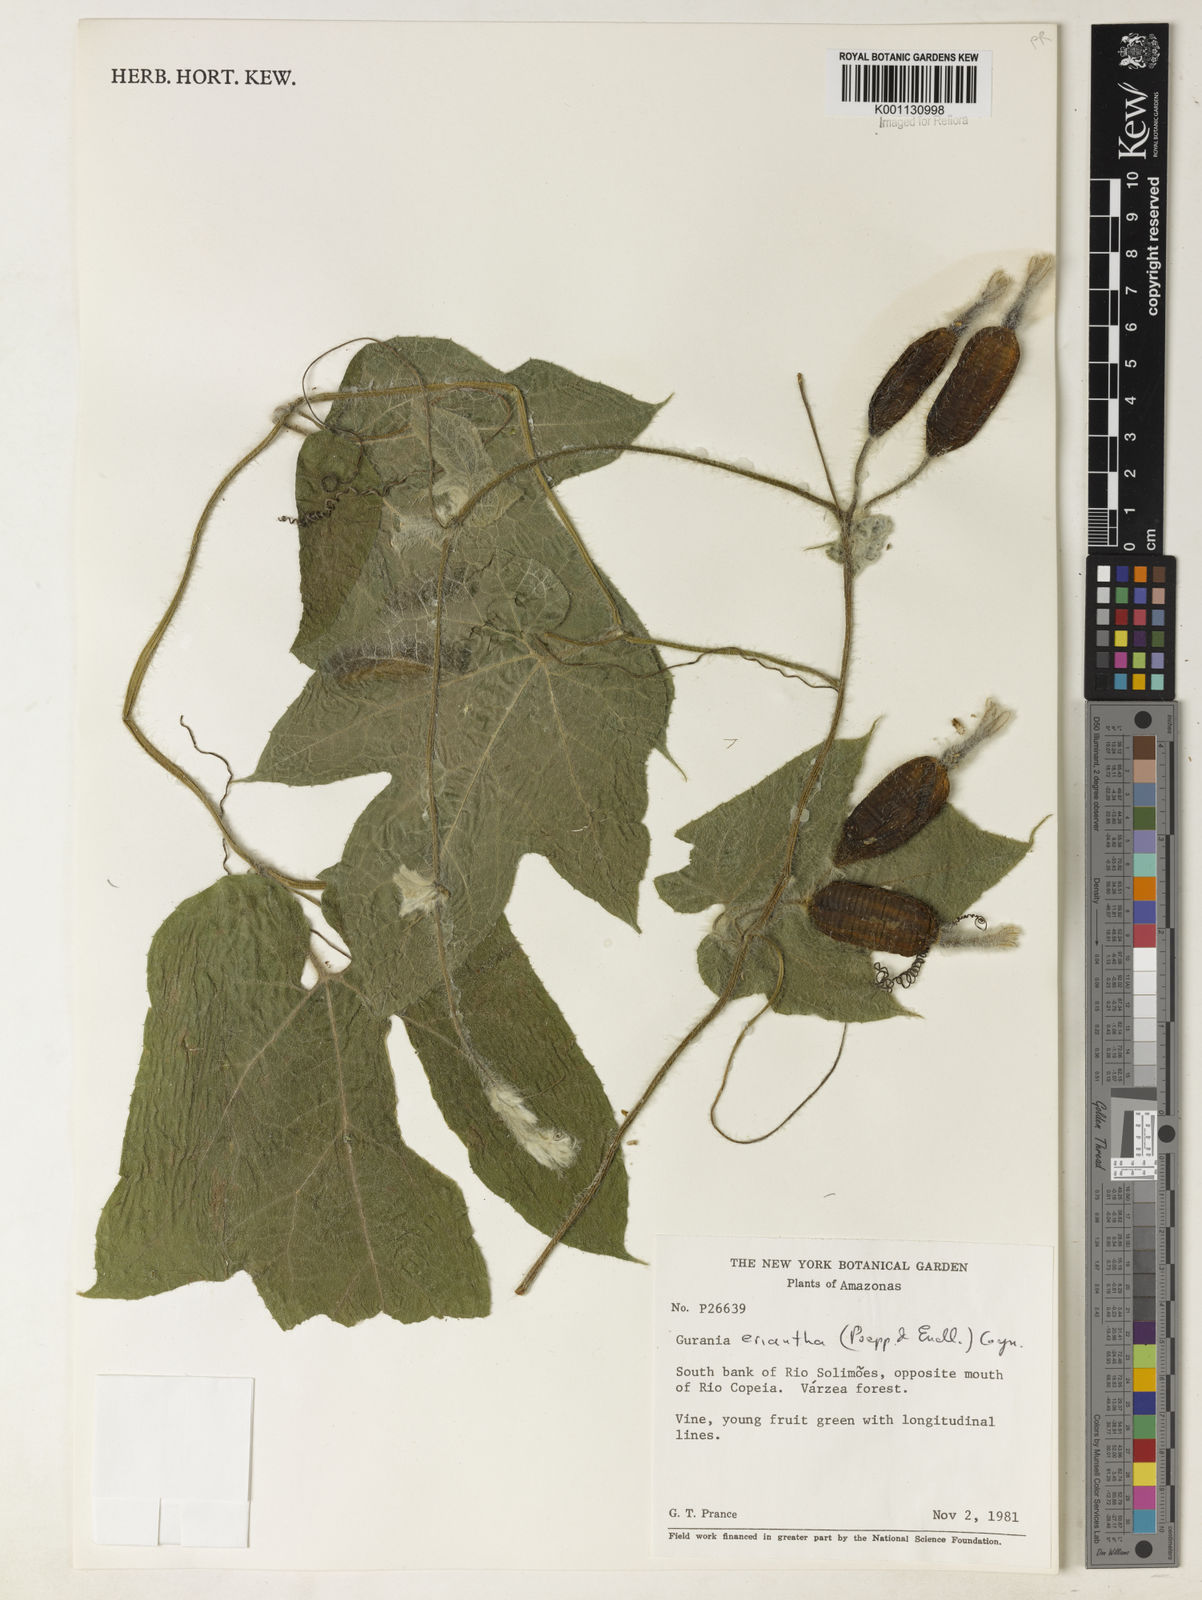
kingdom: Plantae
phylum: Tracheophyta
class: Magnoliopsida
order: Cucurbitales
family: Cucurbitaceae
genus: Gurania
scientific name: Gurania eriantha
